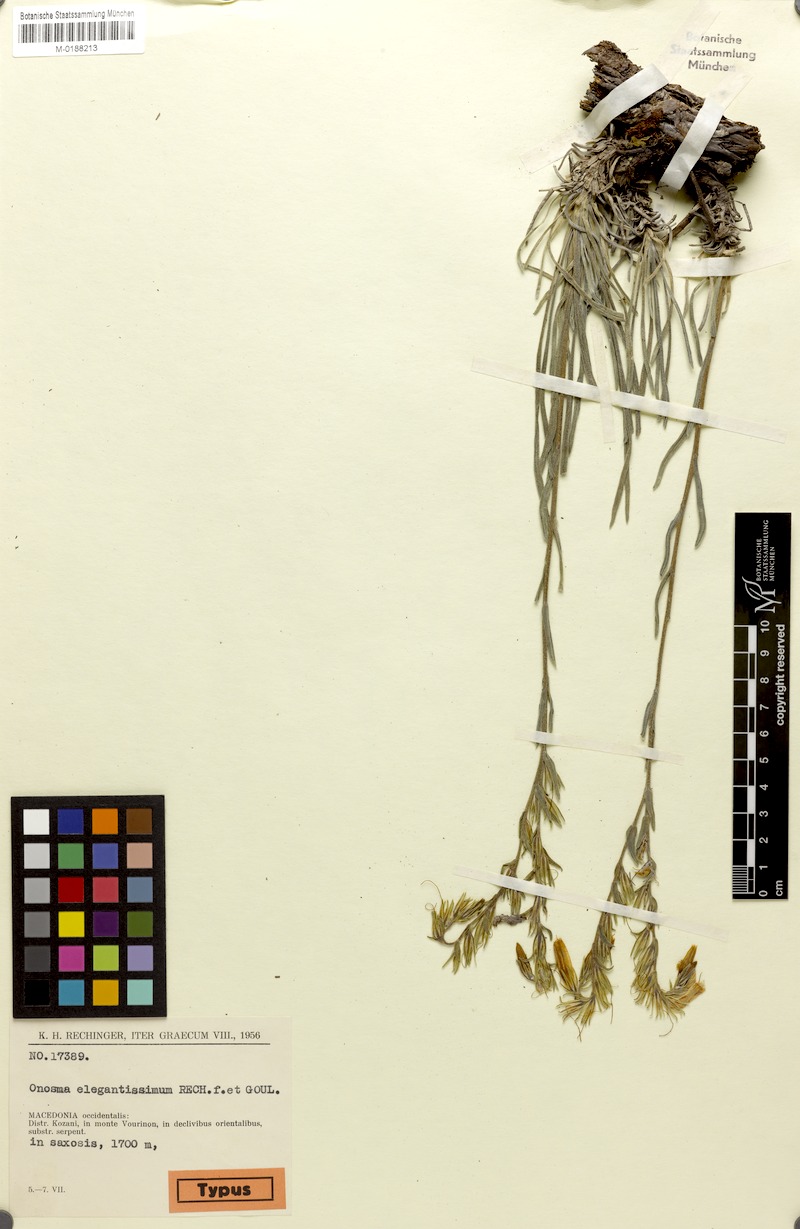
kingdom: Plantae
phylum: Tracheophyta
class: Magnoliopsida
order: Boraginales
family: Boraginaceae
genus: Onosma
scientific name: Onosma elegantissima
